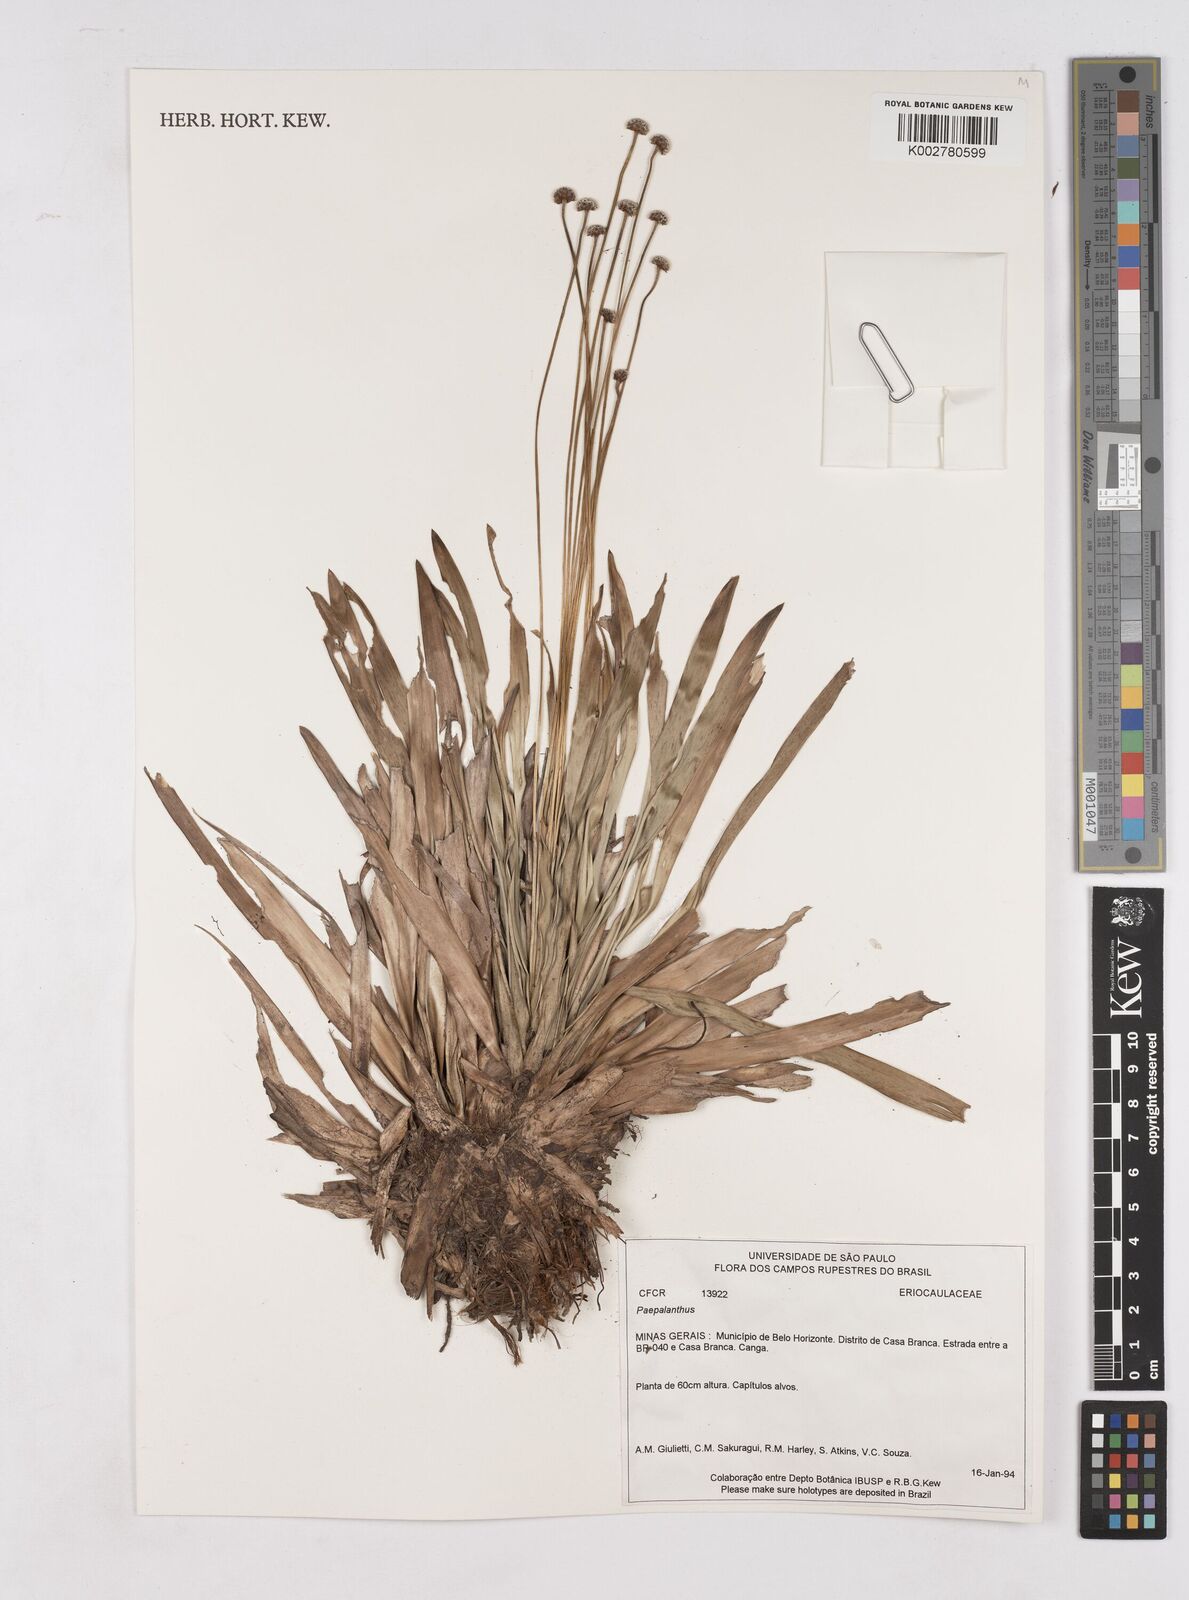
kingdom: Plantae
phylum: Tracheophyta
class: Liliopsida
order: Poales
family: Eriocaulaceae
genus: Paepalanthus
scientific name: Paepalanthus
